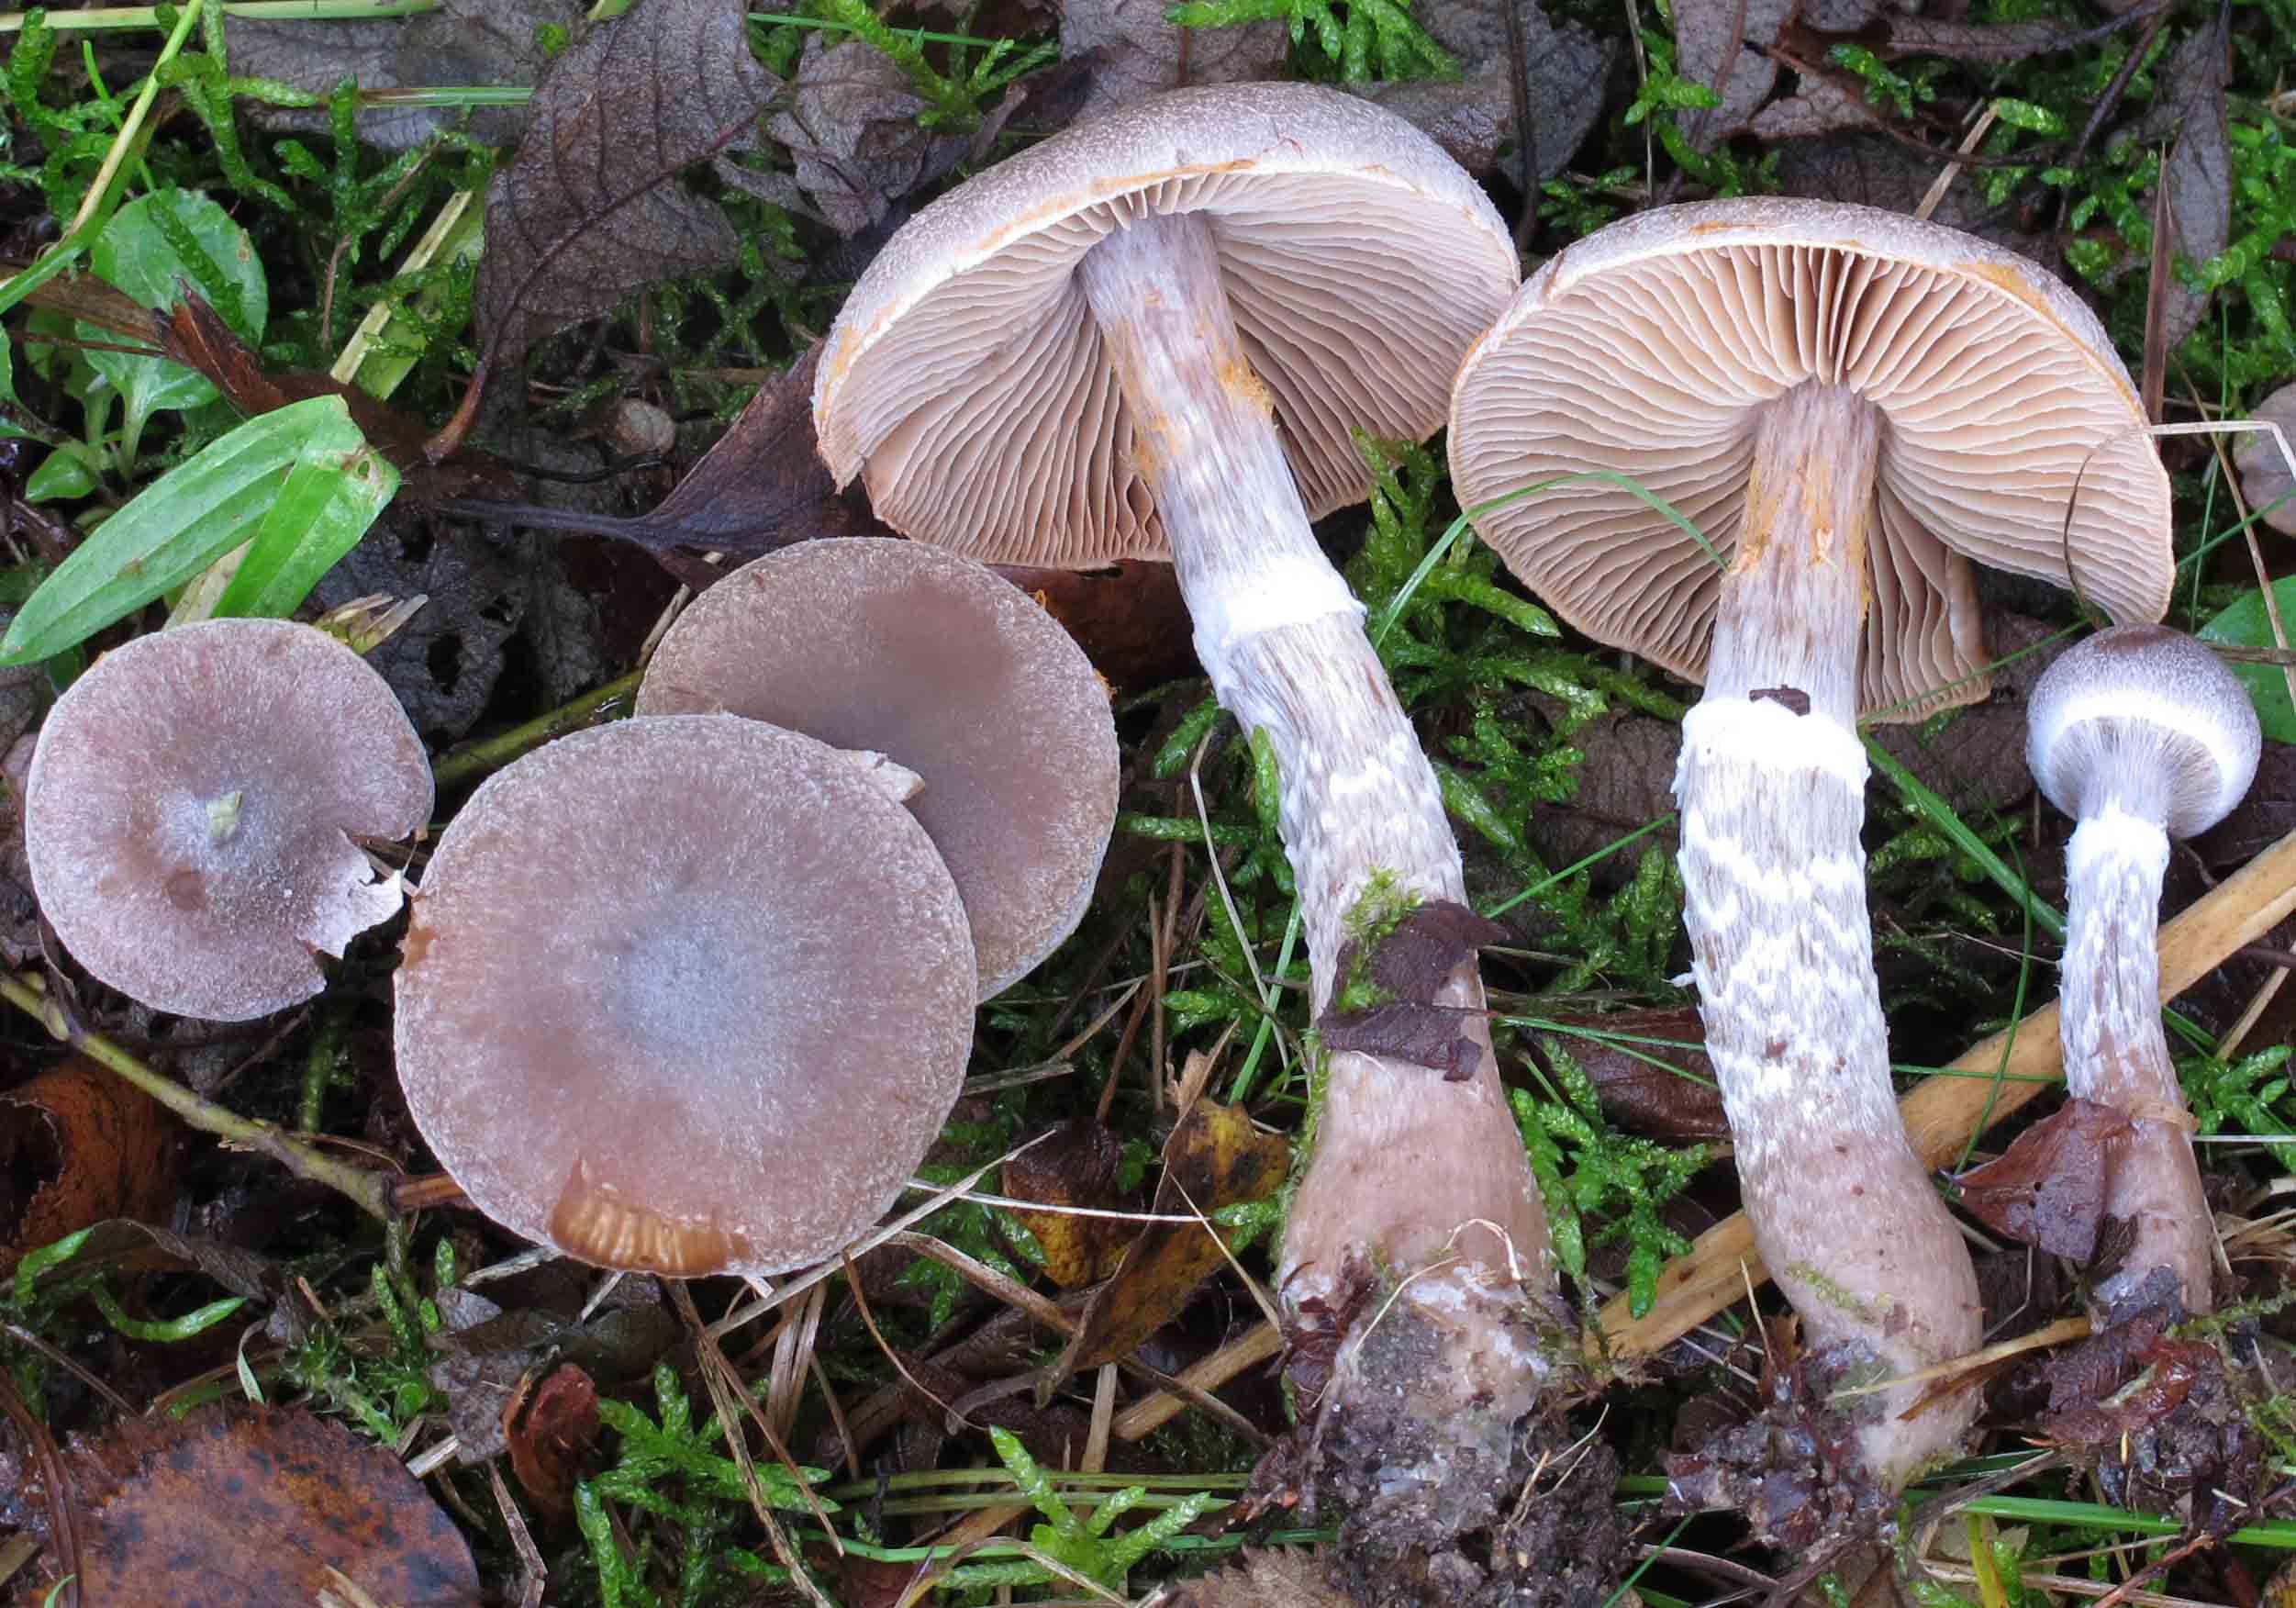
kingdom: Fungi
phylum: Basidiomycota
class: Agaricomycetes
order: Agaricales
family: Cortinariaceae
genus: Cortinarius
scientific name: Cortinarius hemitrichus
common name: hvidfnugget slørhat
